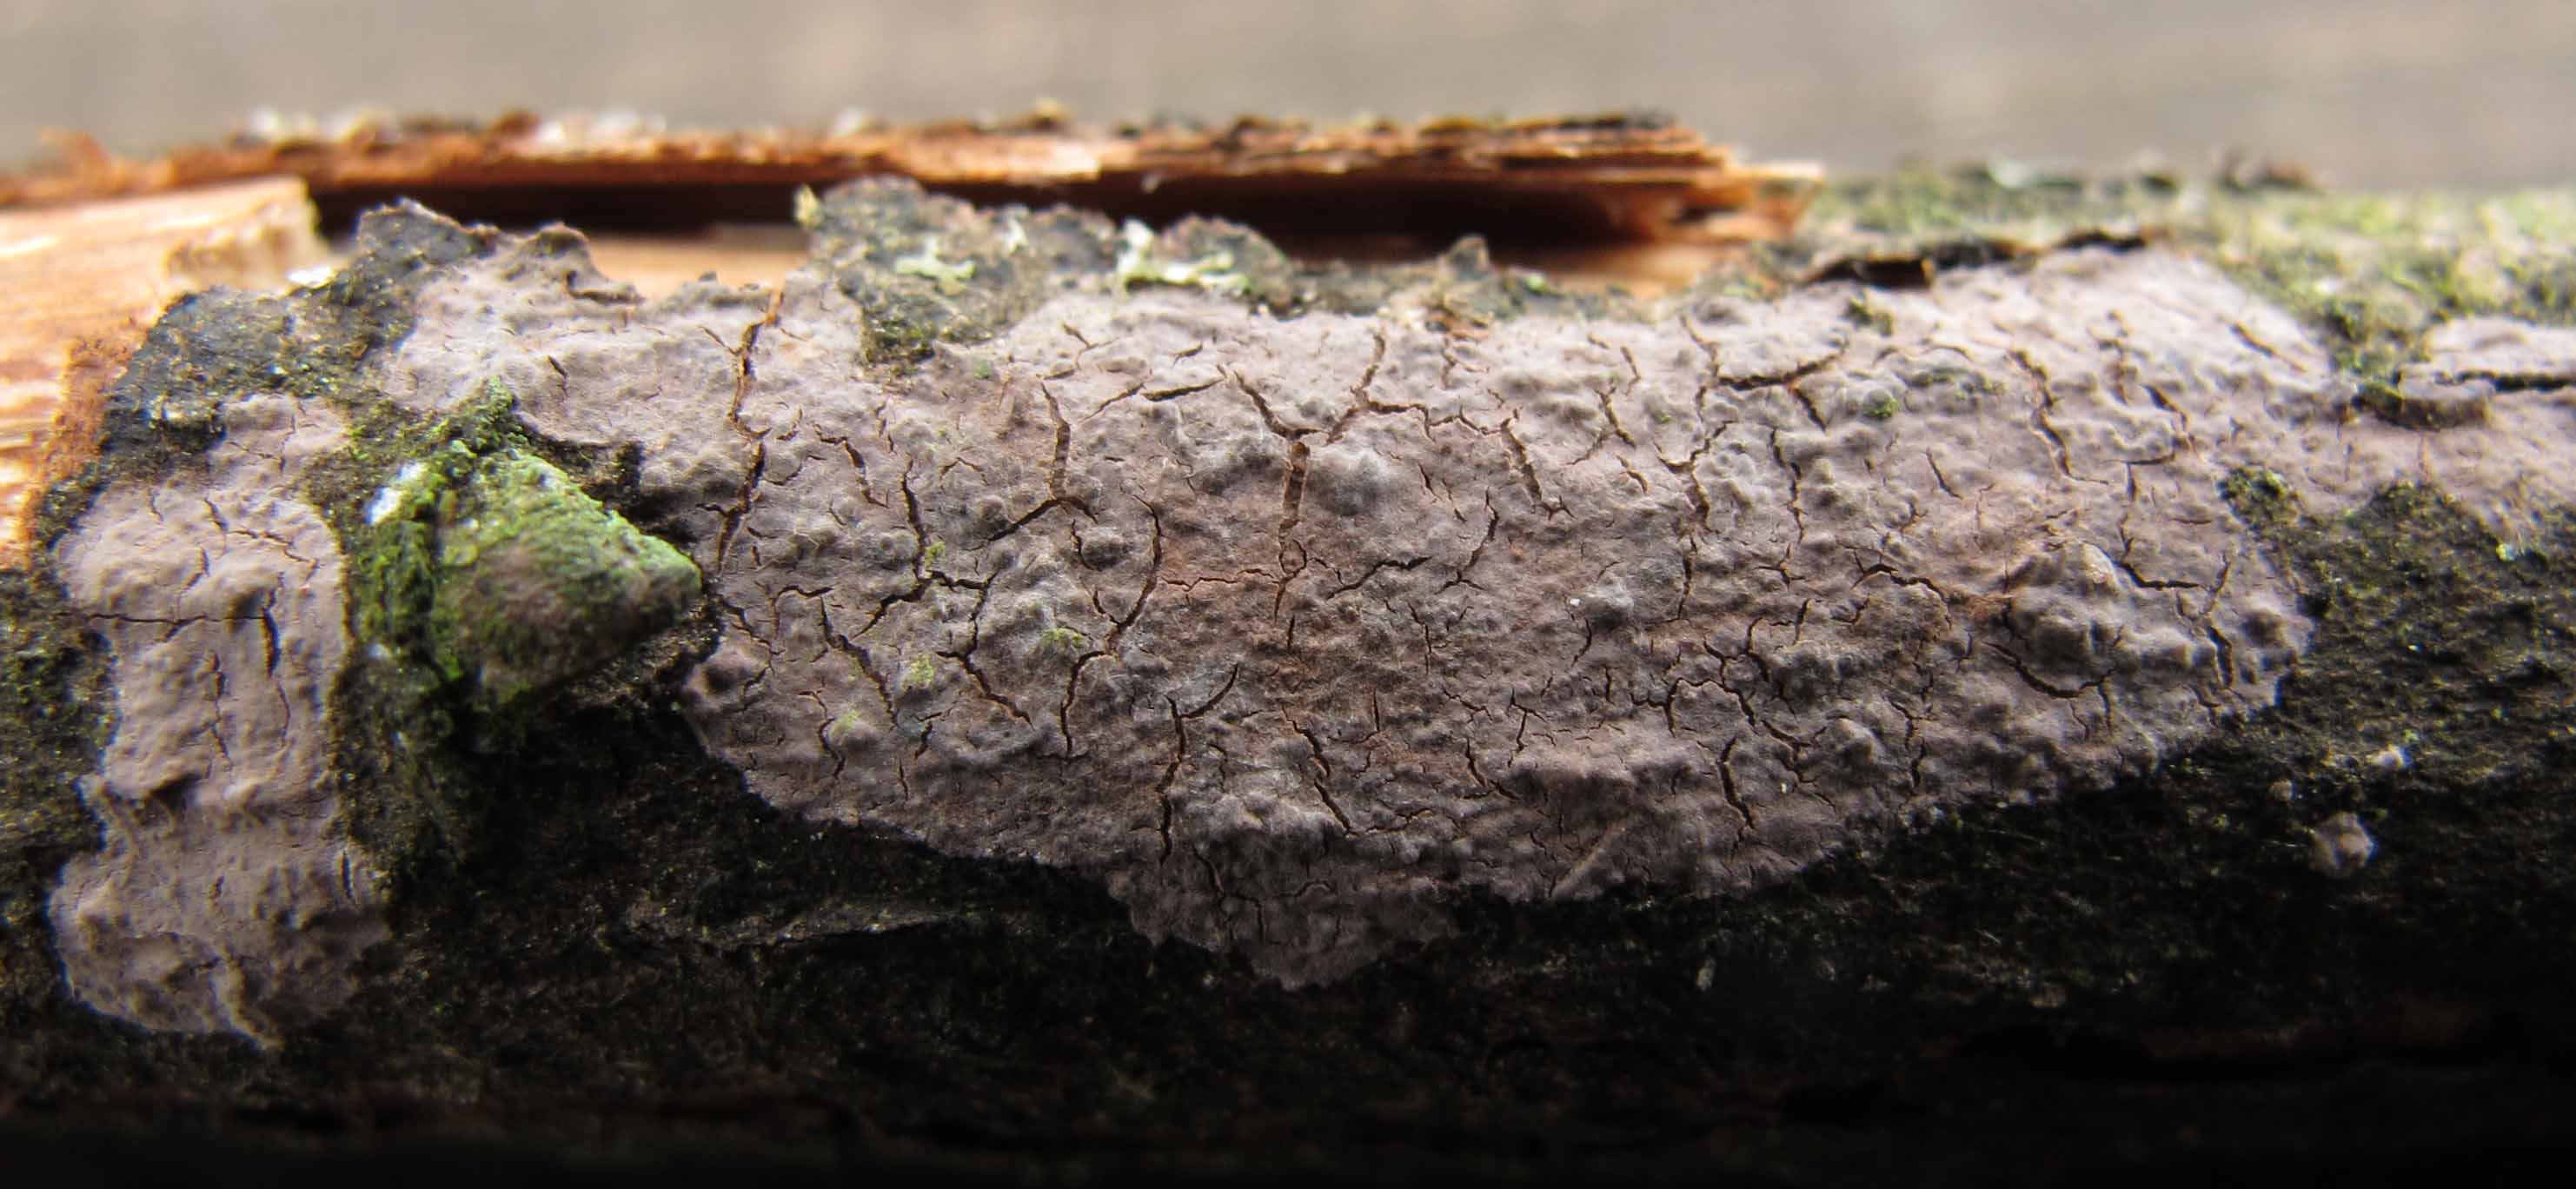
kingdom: Fungi
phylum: Basidiomycota
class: Agaricomycetes
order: Russulales
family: Peniophoraceae
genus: Peniophora
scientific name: Peniophora violaceolivida
